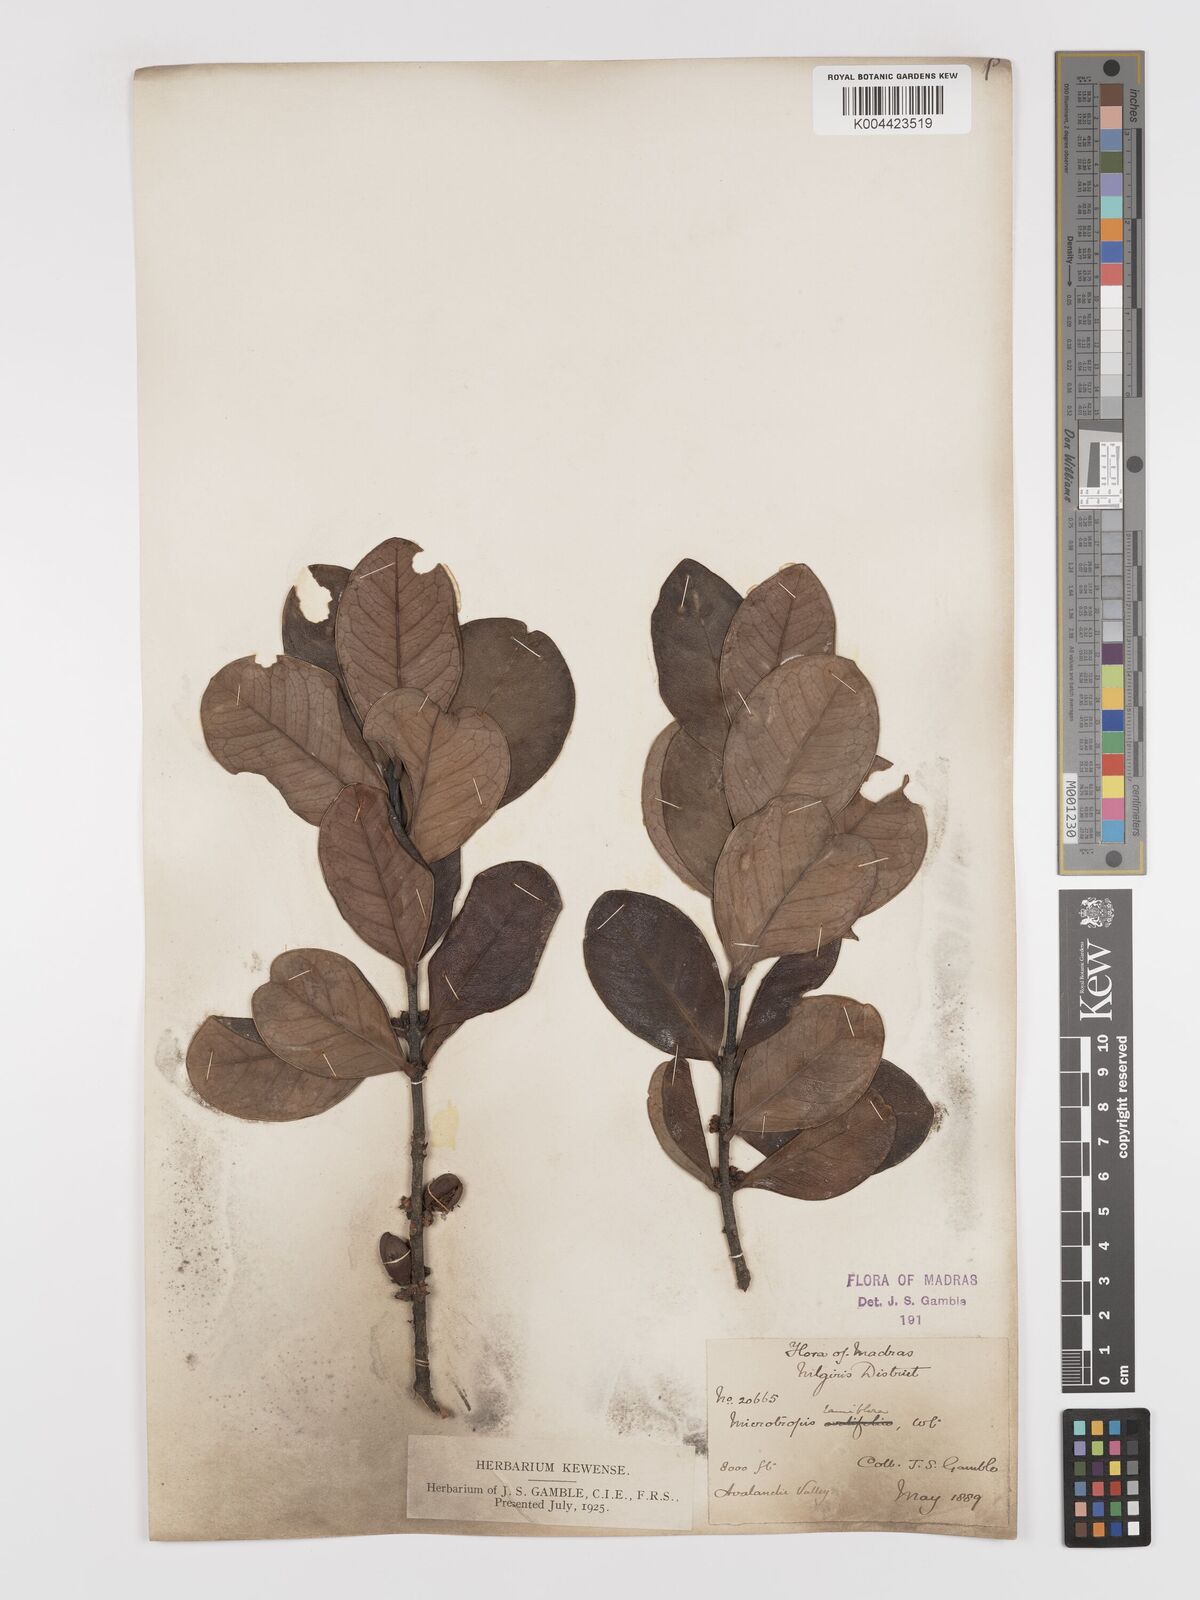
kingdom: Plantae
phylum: Tracheophyta
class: Magnoliopsida
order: Celastrales
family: Celastraceae
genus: Microtropis
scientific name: Microtropis ramiflora
